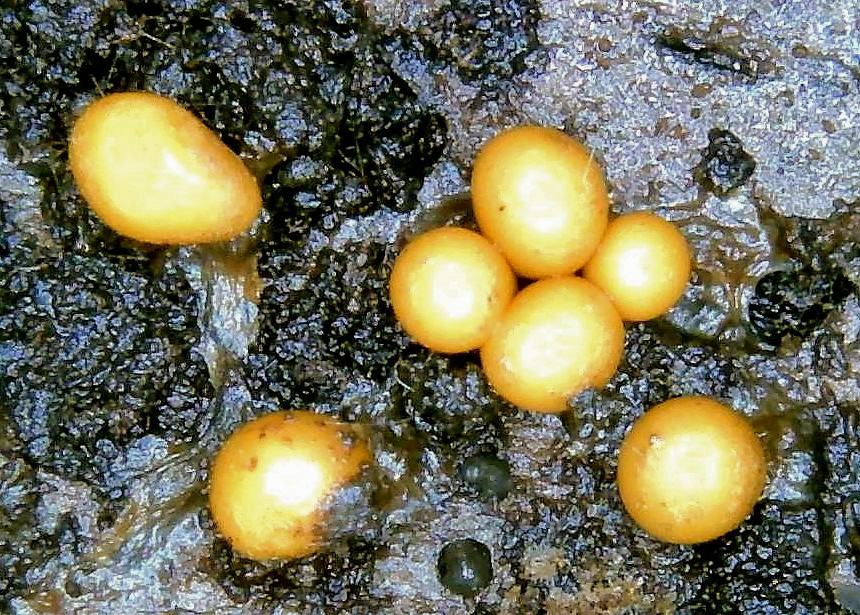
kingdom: Protozoa
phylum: Mycetozoa
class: Myxomycetes
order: Trichiales
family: Trichiaceae
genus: Trichia
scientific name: Trichia
